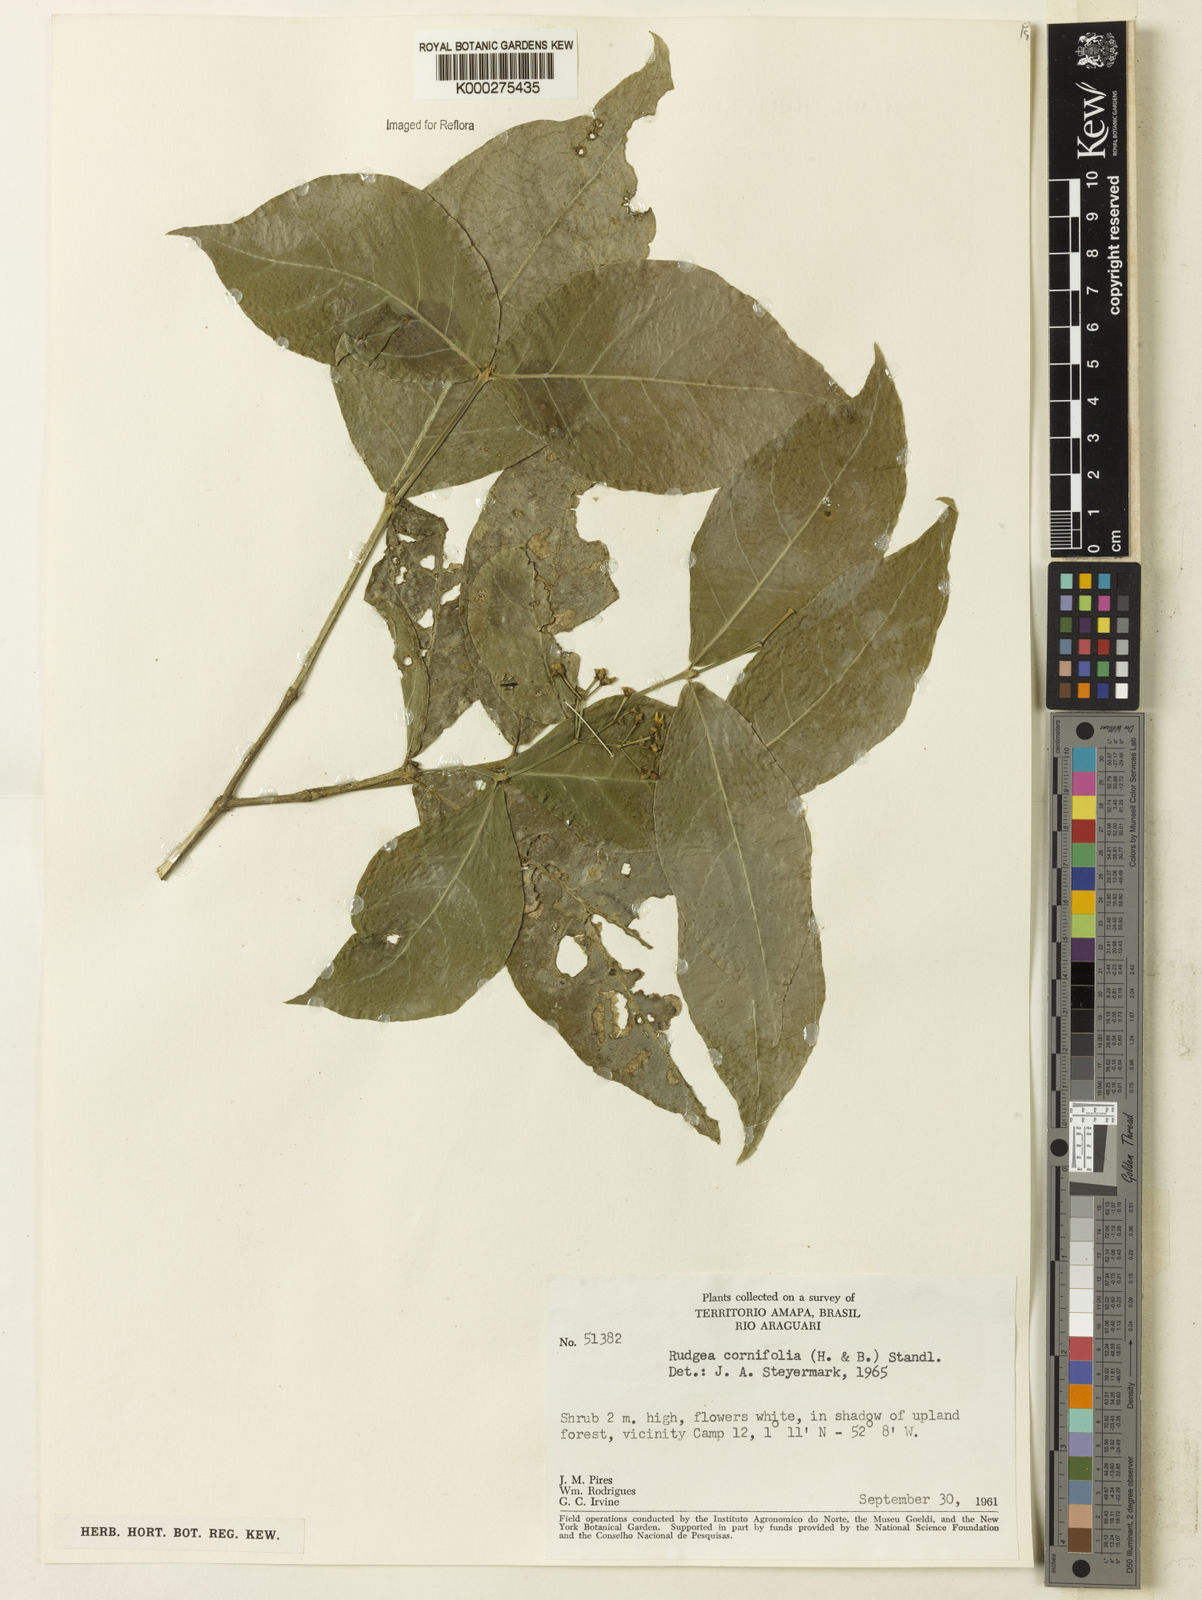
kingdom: Plantae
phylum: Tracheophyta
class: Magnoliopsida
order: Gentianales
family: Rubiaceae
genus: Rudgea
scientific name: Rudgea cornifolia
